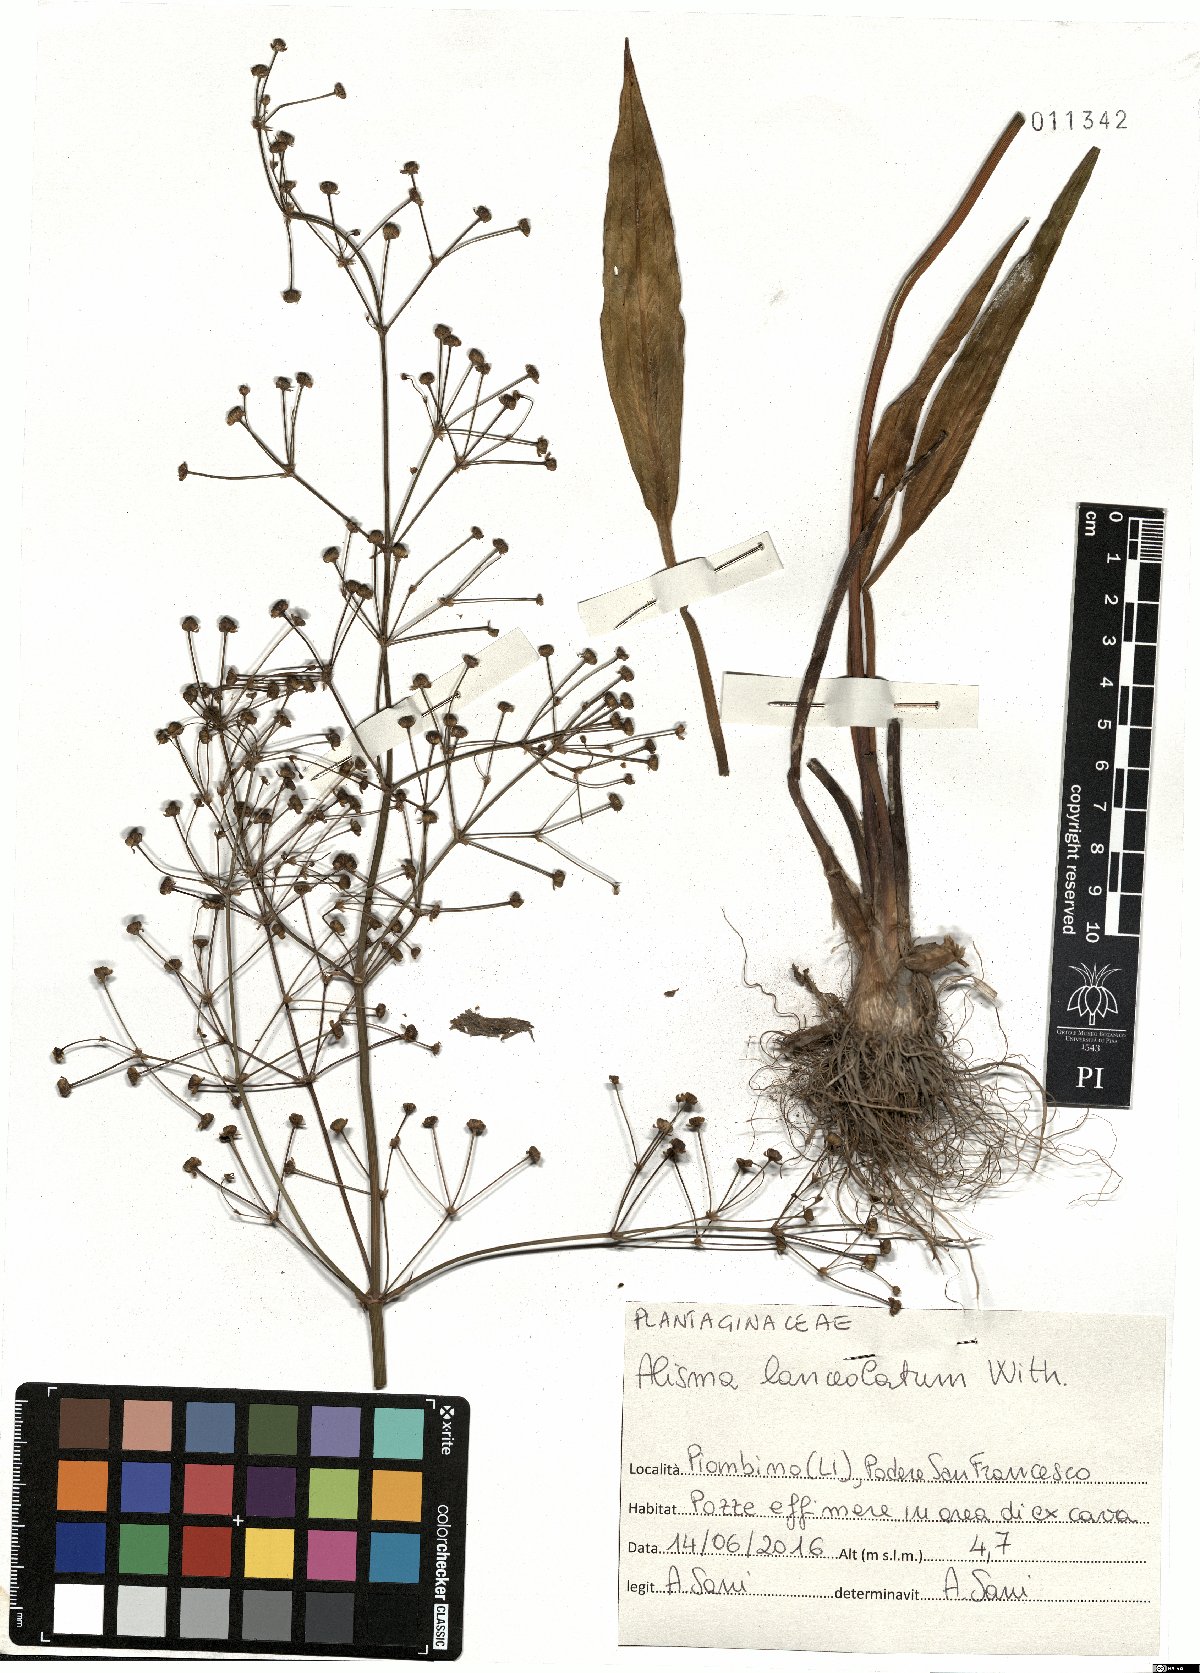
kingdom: Plantae
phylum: Tracheophyta
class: Liliopsida
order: Alismatales
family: Alismataceae
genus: Alisma
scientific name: Alisma lanceolatum
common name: Narrow-leaved water-plantain
